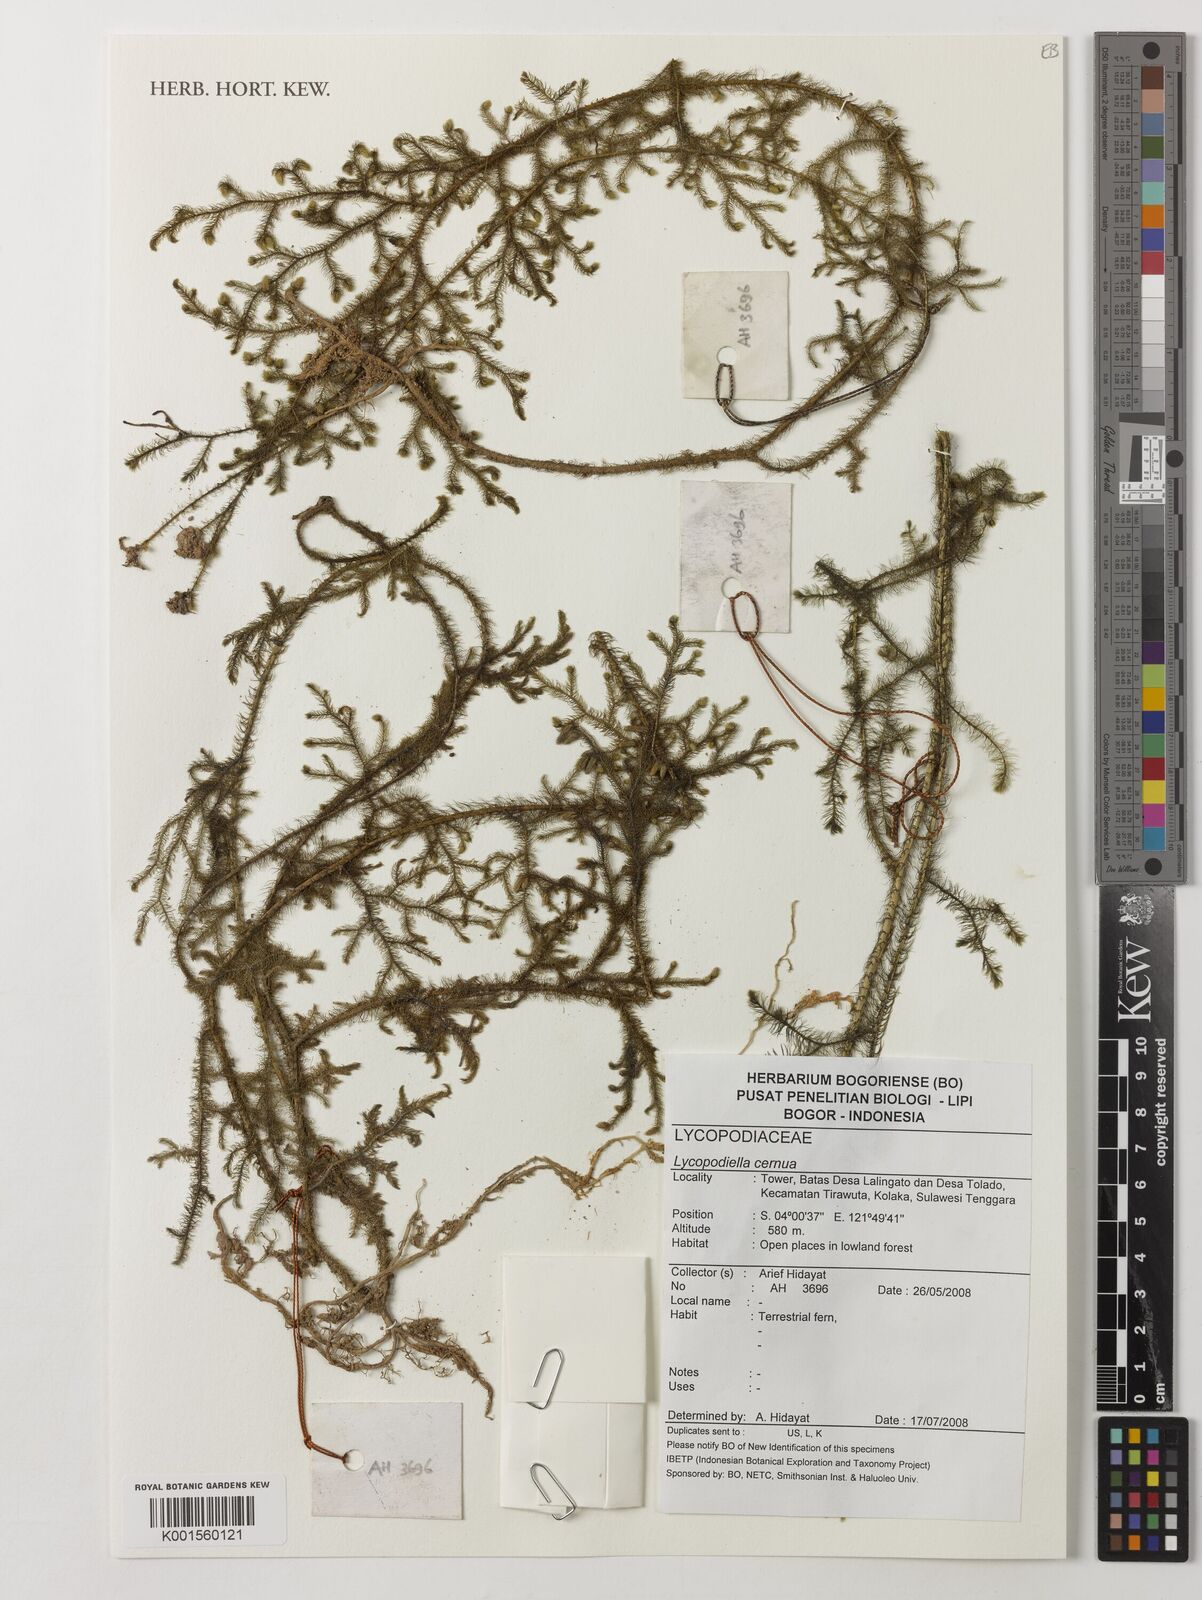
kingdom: Plantae
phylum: Tracheophyta
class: Lycopodiopsida
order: Lycopodiales
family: Lycopodiaceae
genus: Palhinhaea
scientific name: Palhinhaea cernua
